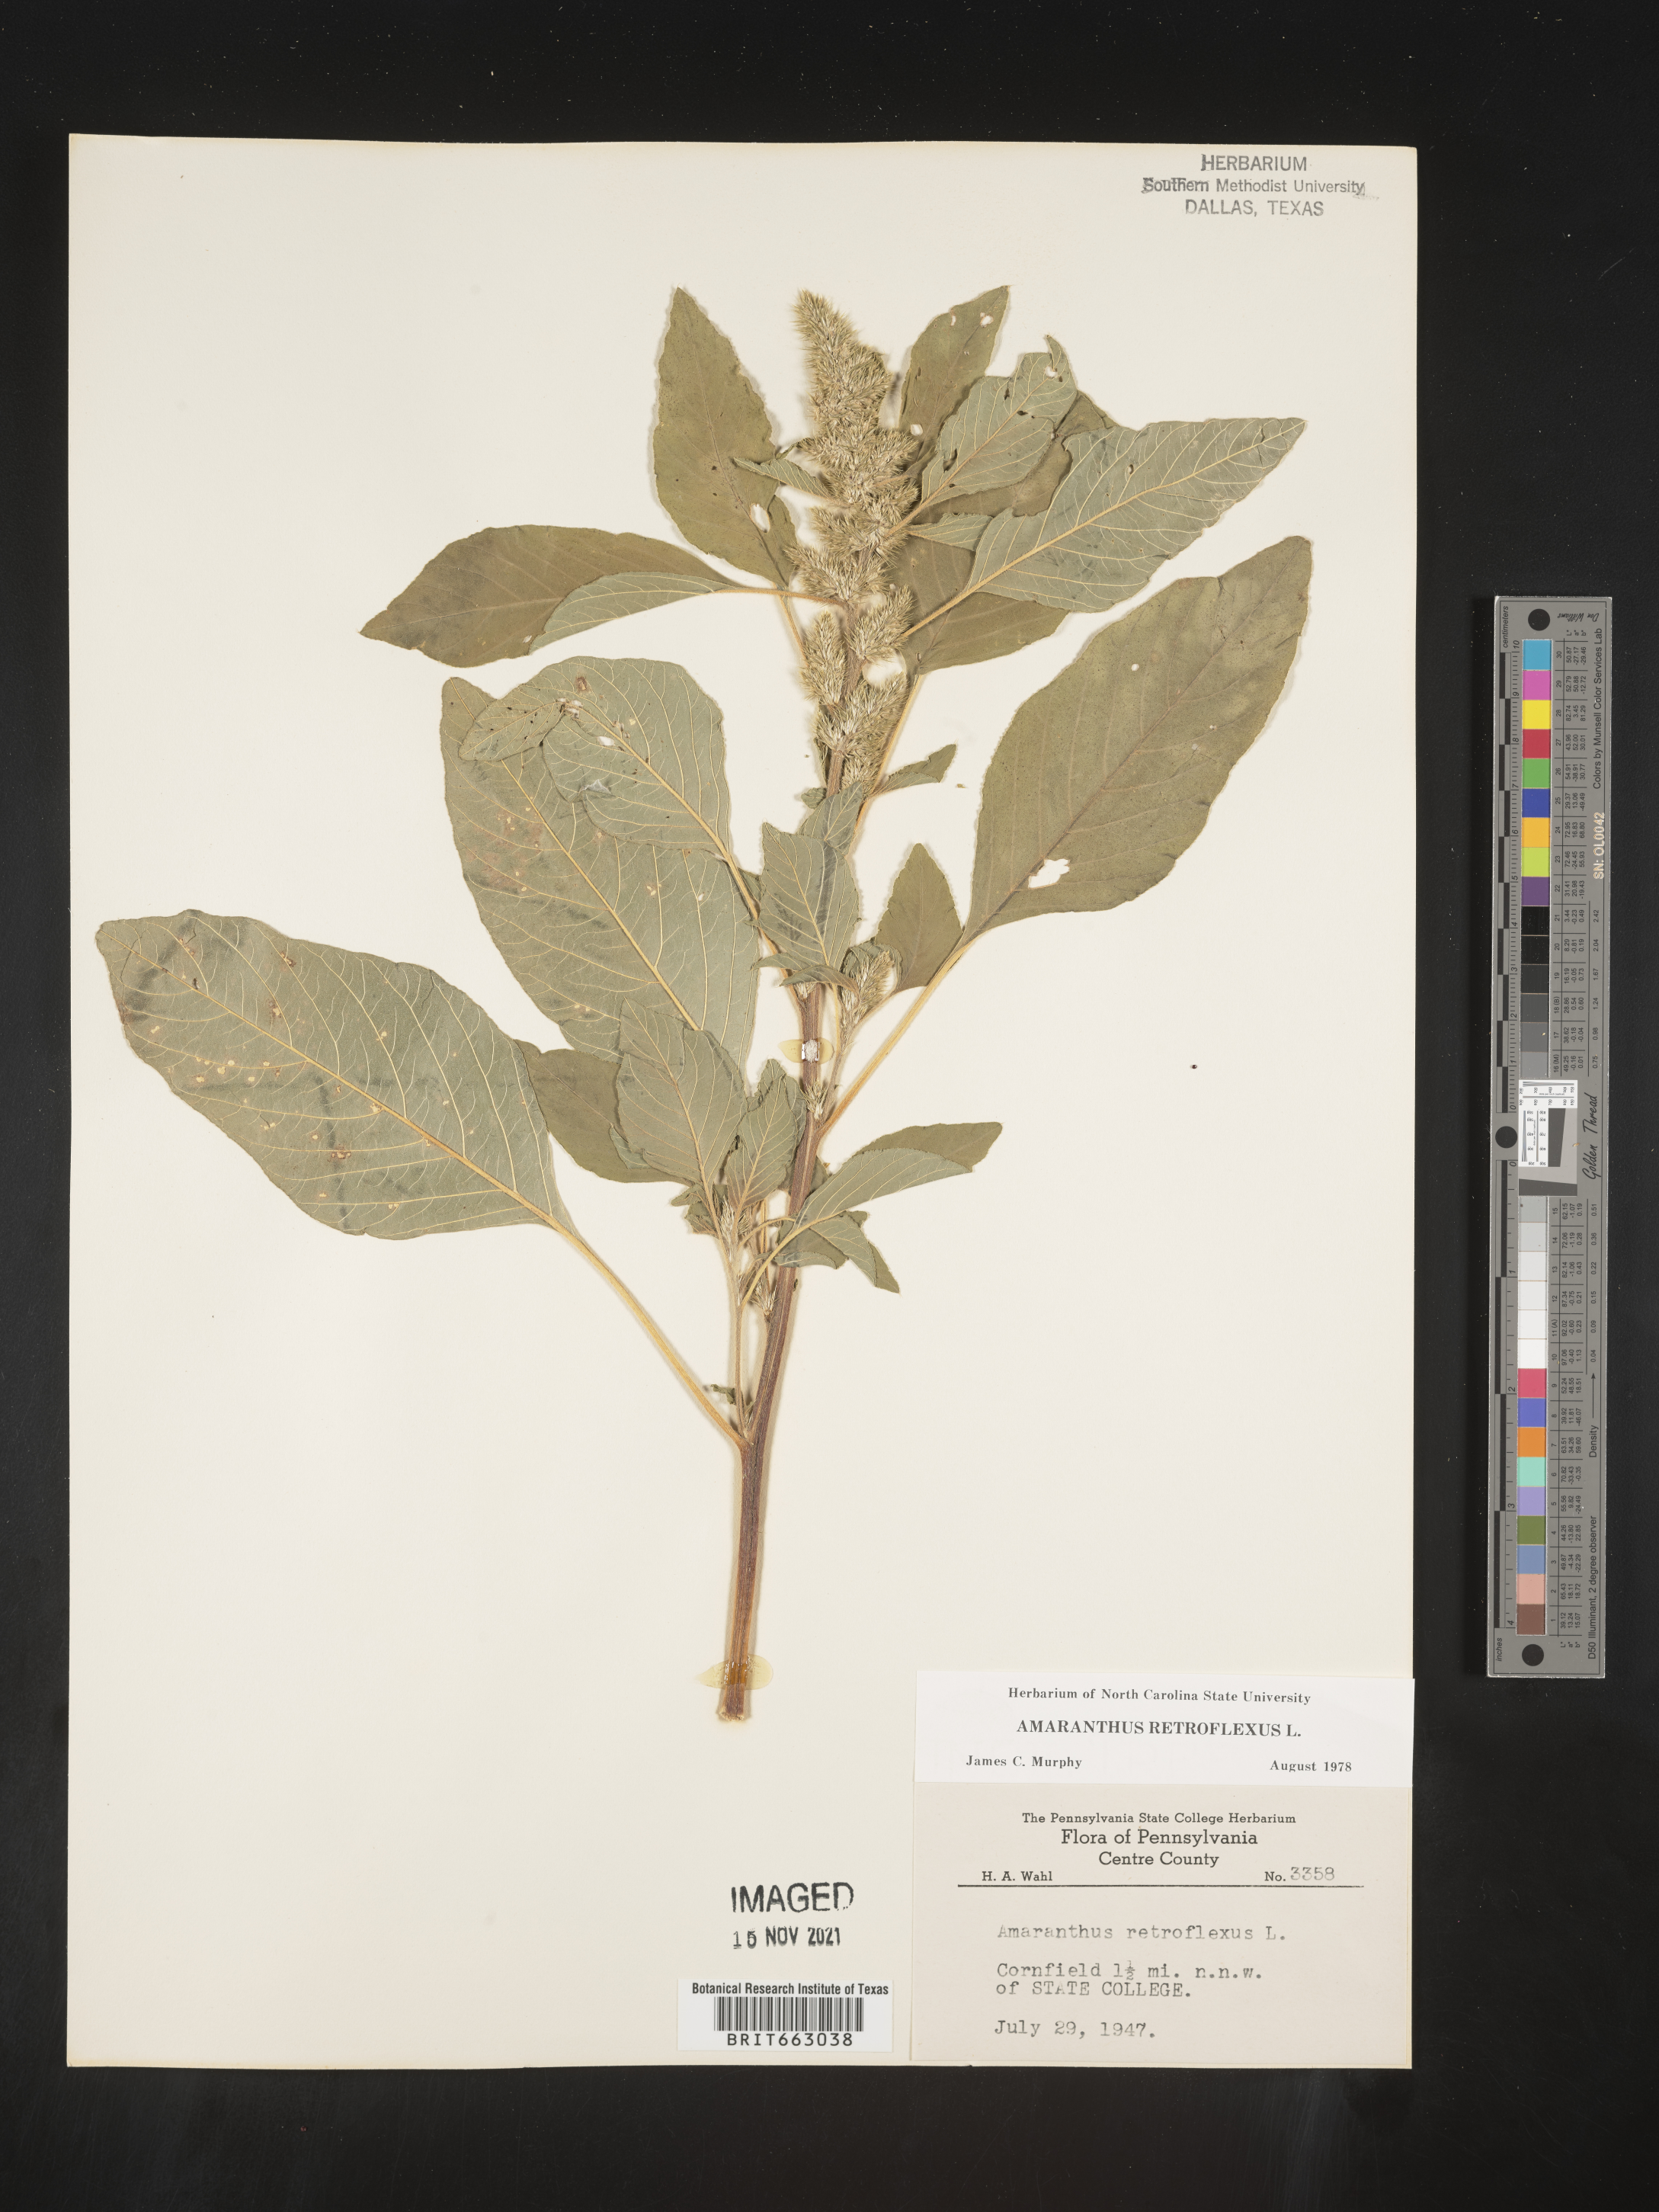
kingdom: Plantae
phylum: Tracheophyta
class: Magnoliopsida
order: Caryophyllales
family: Amaranthaceae
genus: Amaranthus
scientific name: Amaranthus retroflexus
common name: Redroot amaranth
